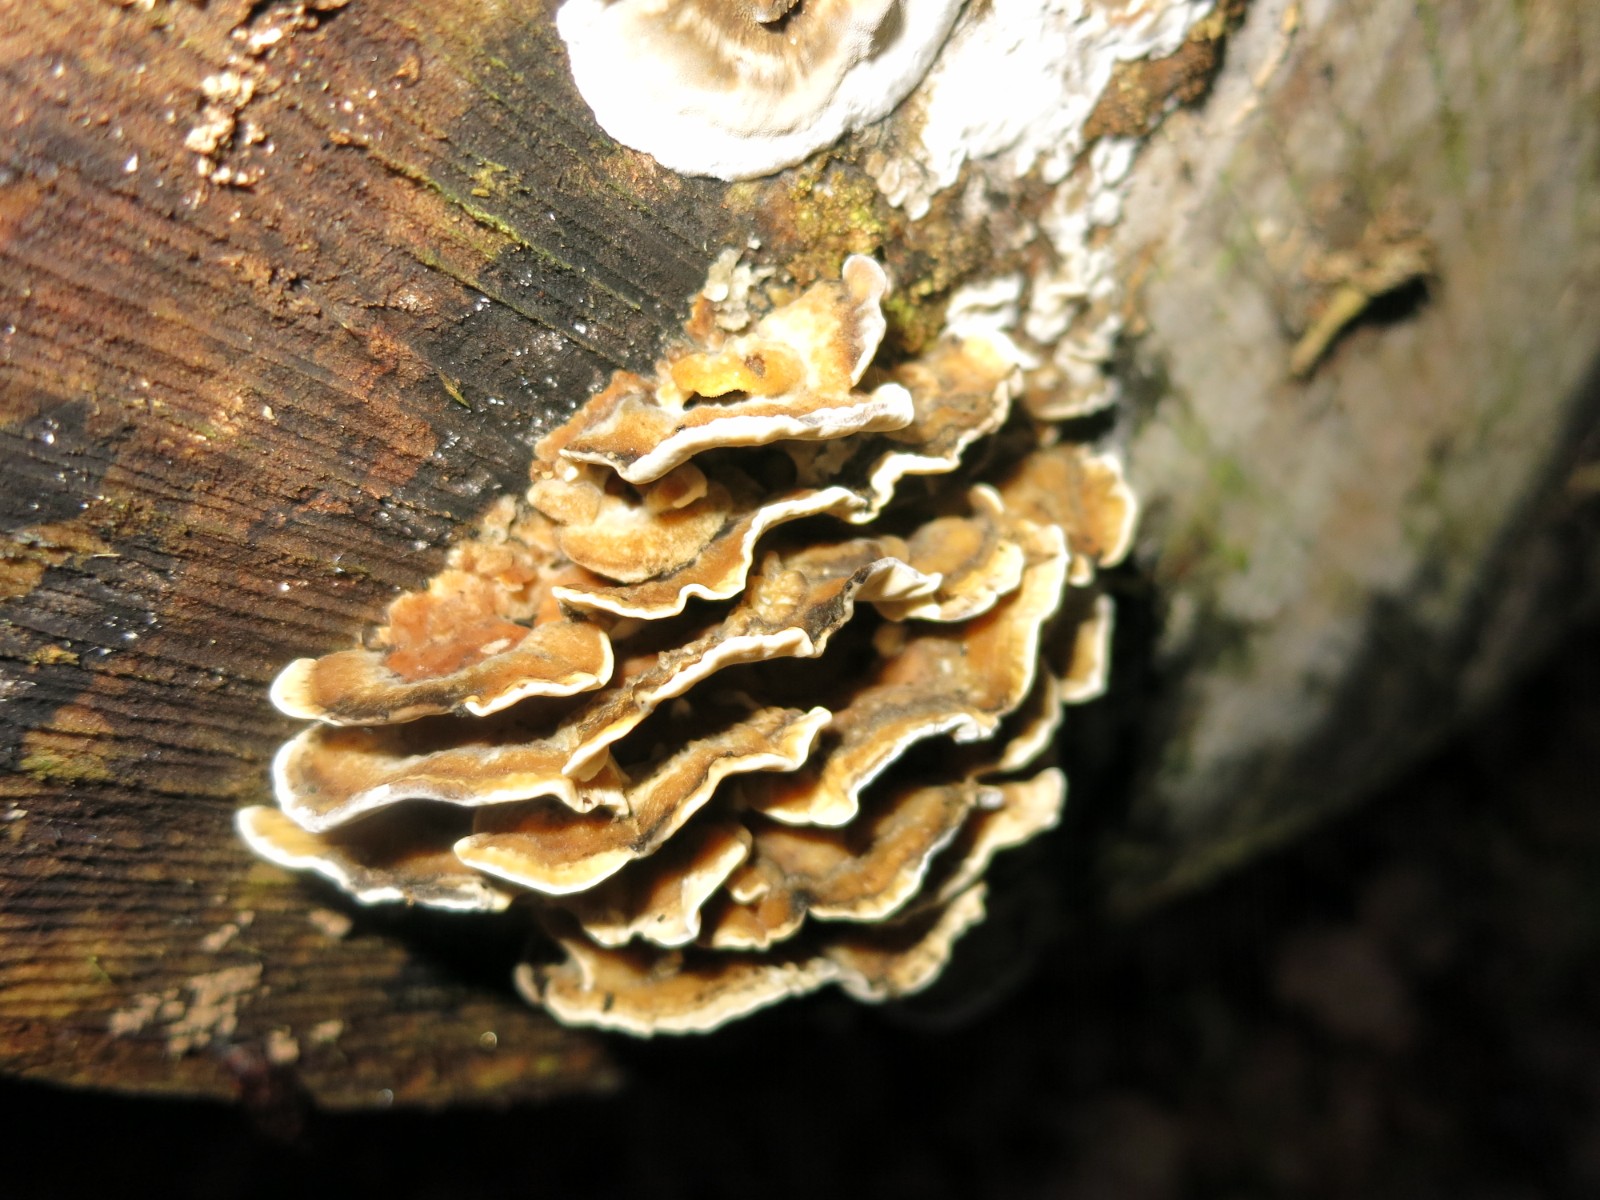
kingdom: Fungi
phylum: Basidiomycota
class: Agaricomycetes
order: Polyporales
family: Phanerochaetaceae
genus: Bjerkandera
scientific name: Bjerkandera adusta
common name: sveden sodporesvamp
